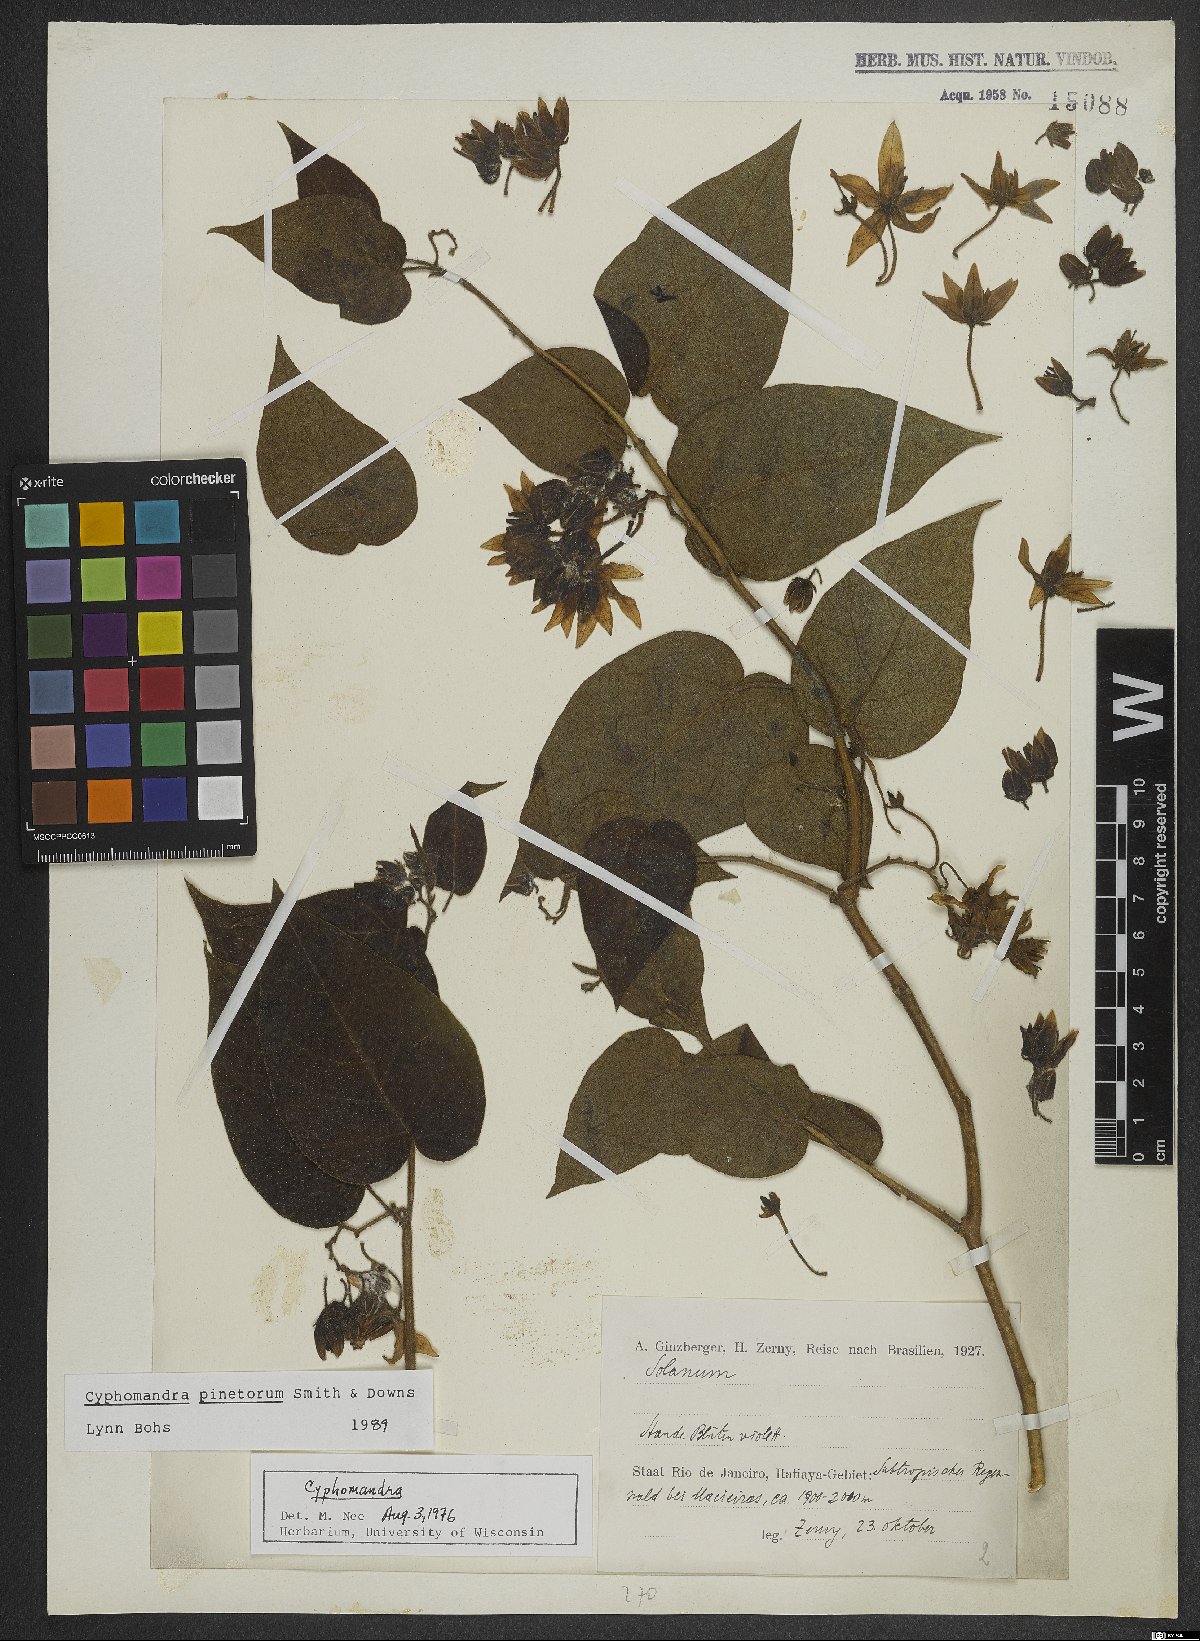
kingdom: Plantae
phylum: Tracheophyta
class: Magnoliopsida
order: Solanales
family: Solanaceae
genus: Solanum
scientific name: Solanum pinetorum
